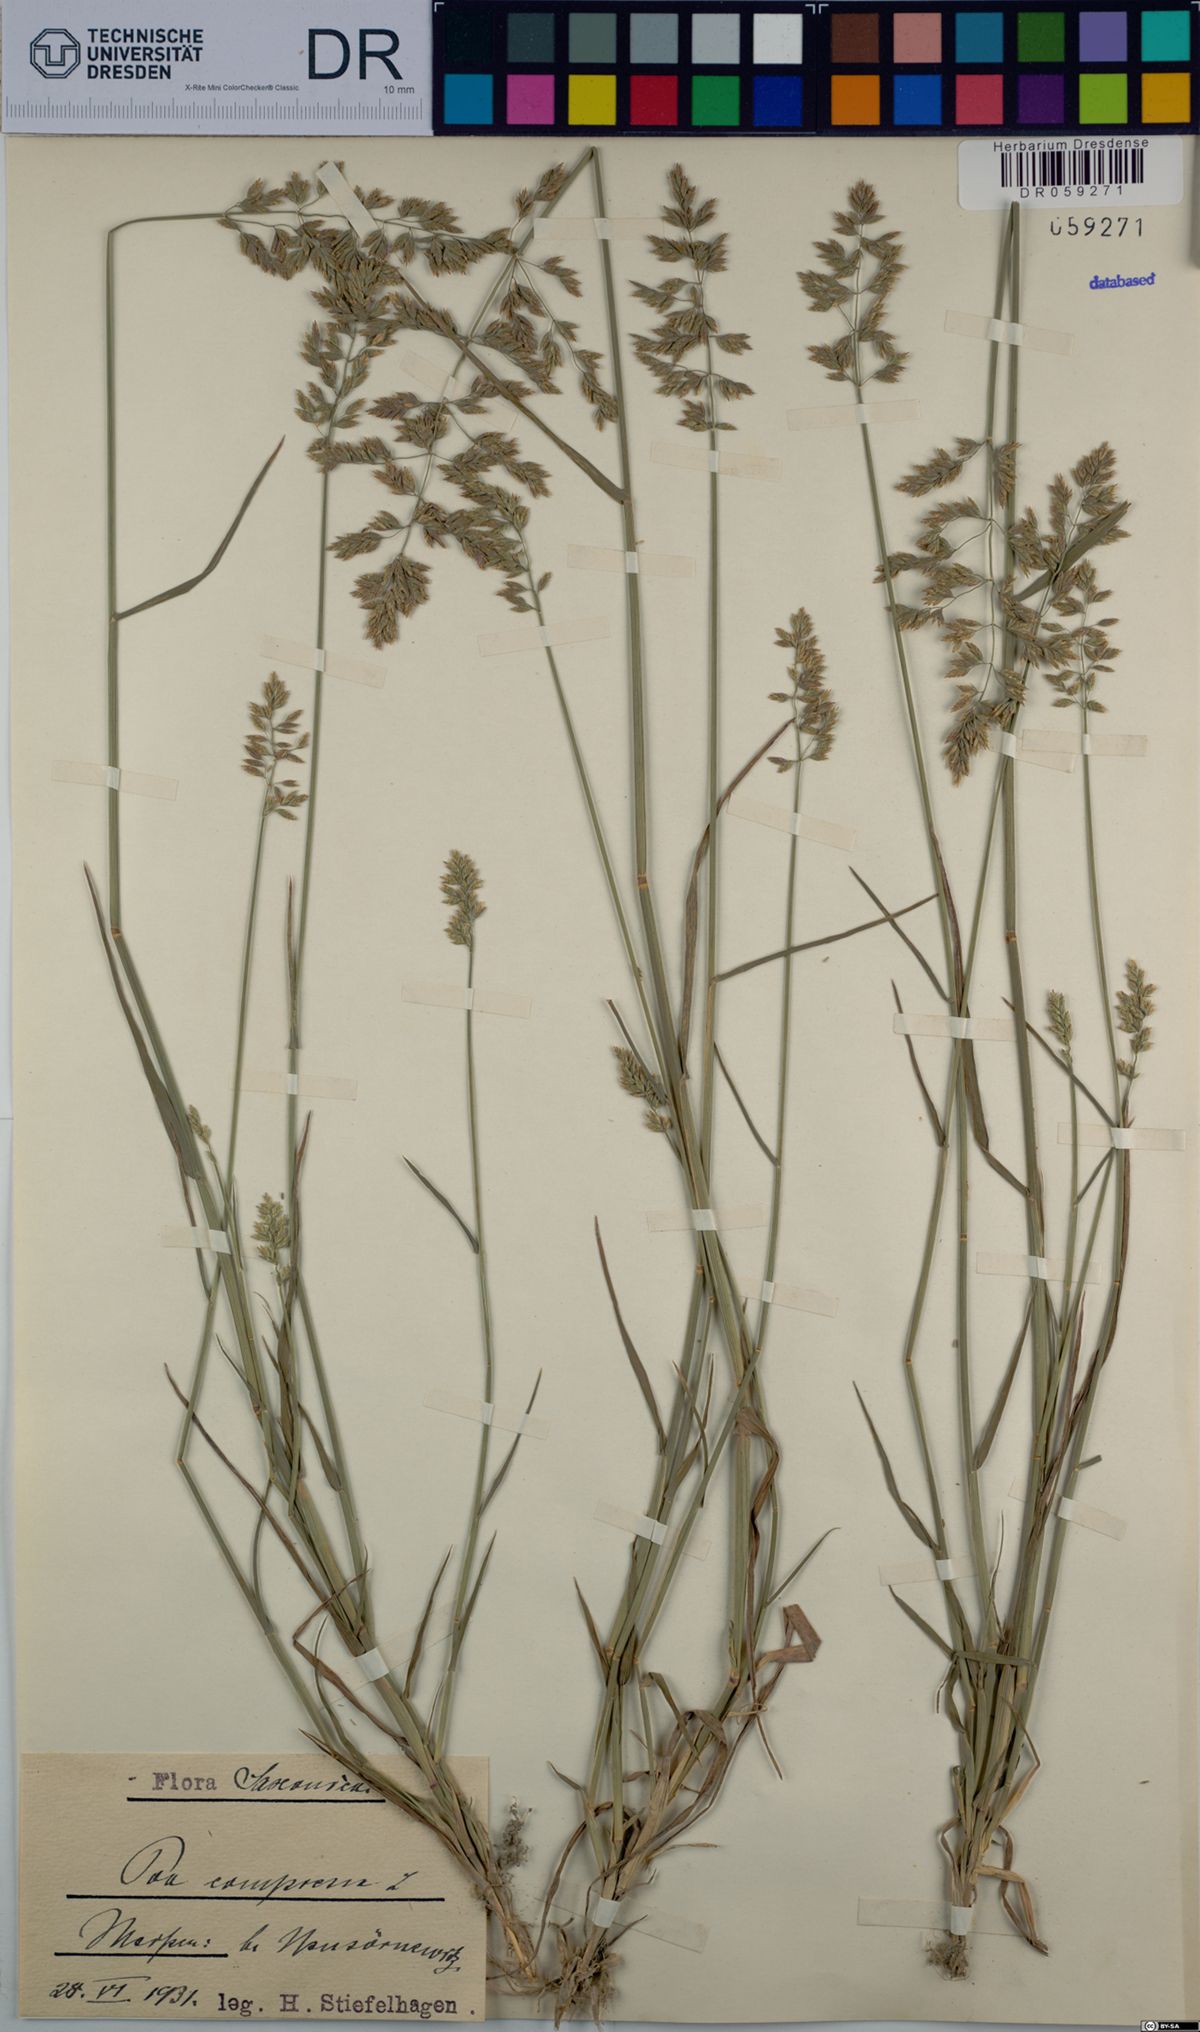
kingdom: Plantae
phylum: Tracheophyta
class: Liliopsida
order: Poales
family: Poaceae
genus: Poa
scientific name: Poa compressa
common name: Canada bluegrass
